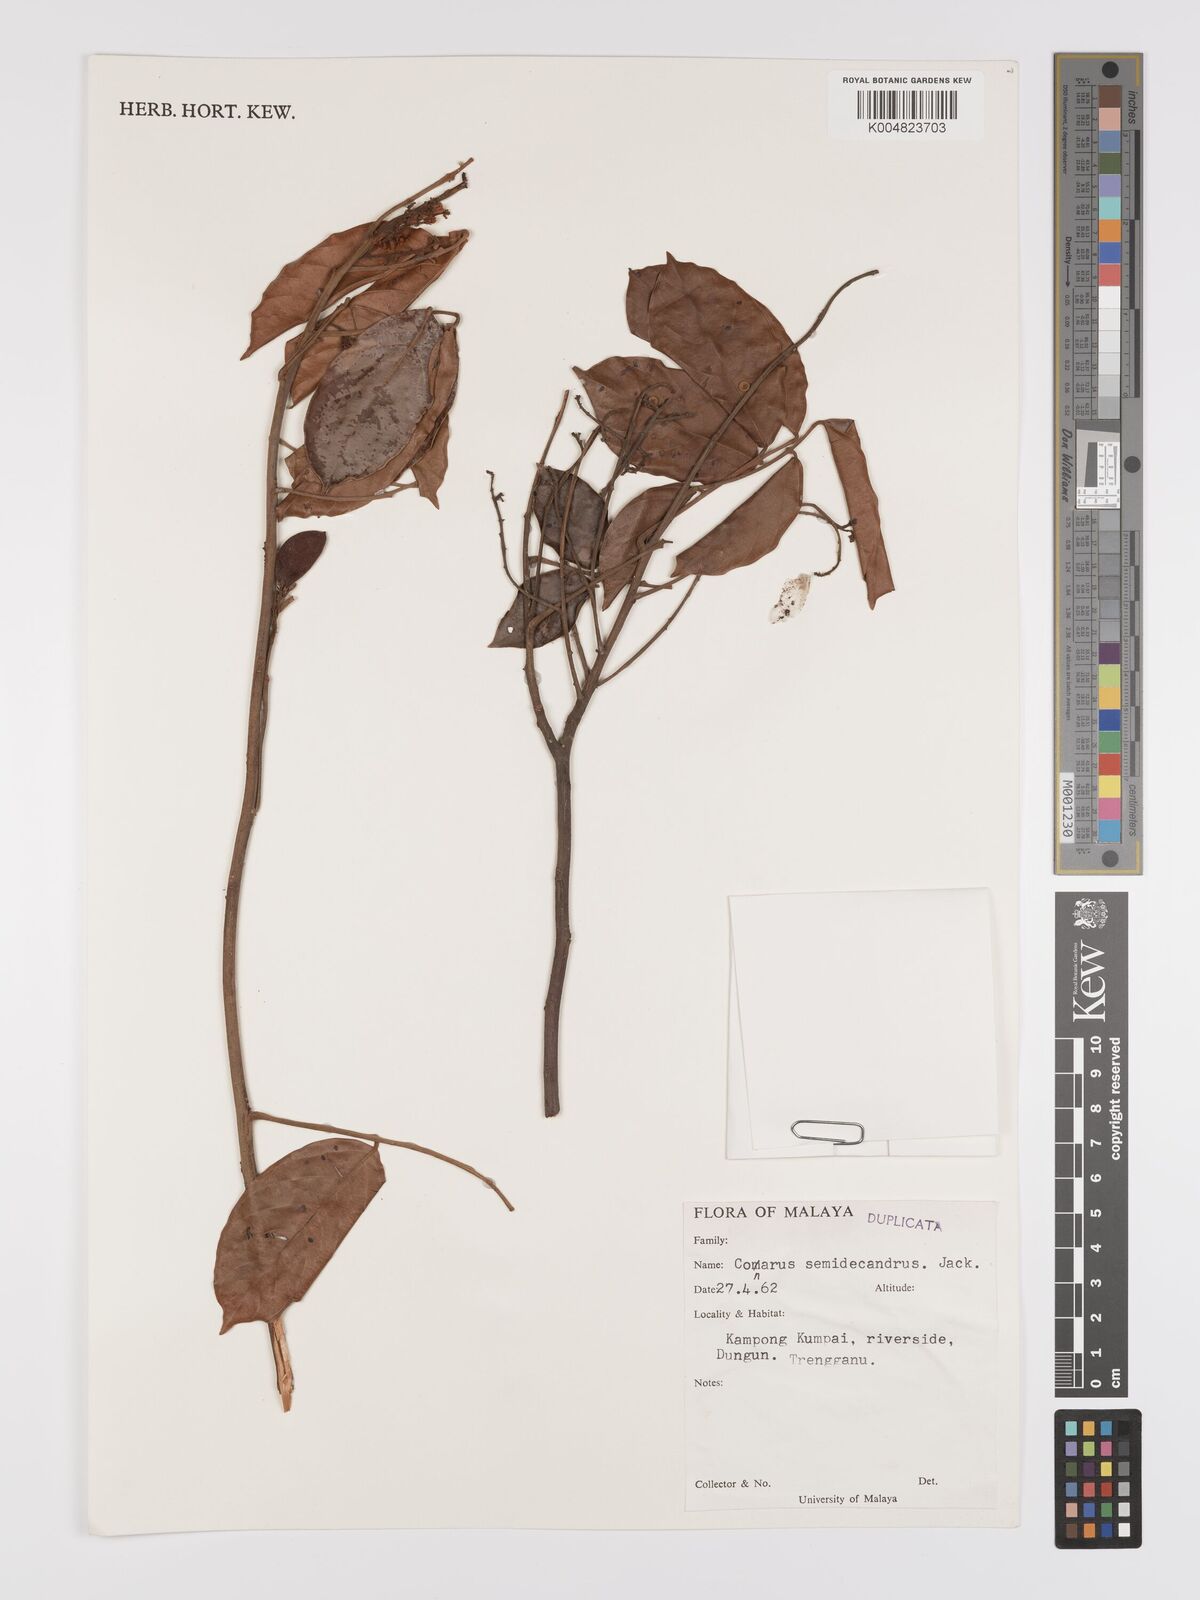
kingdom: Plantae
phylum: Tracheophyta
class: Magnoliopsida
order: Oxalidales
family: Connaraceae
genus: Connarus
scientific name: Connarus semidecandrus
